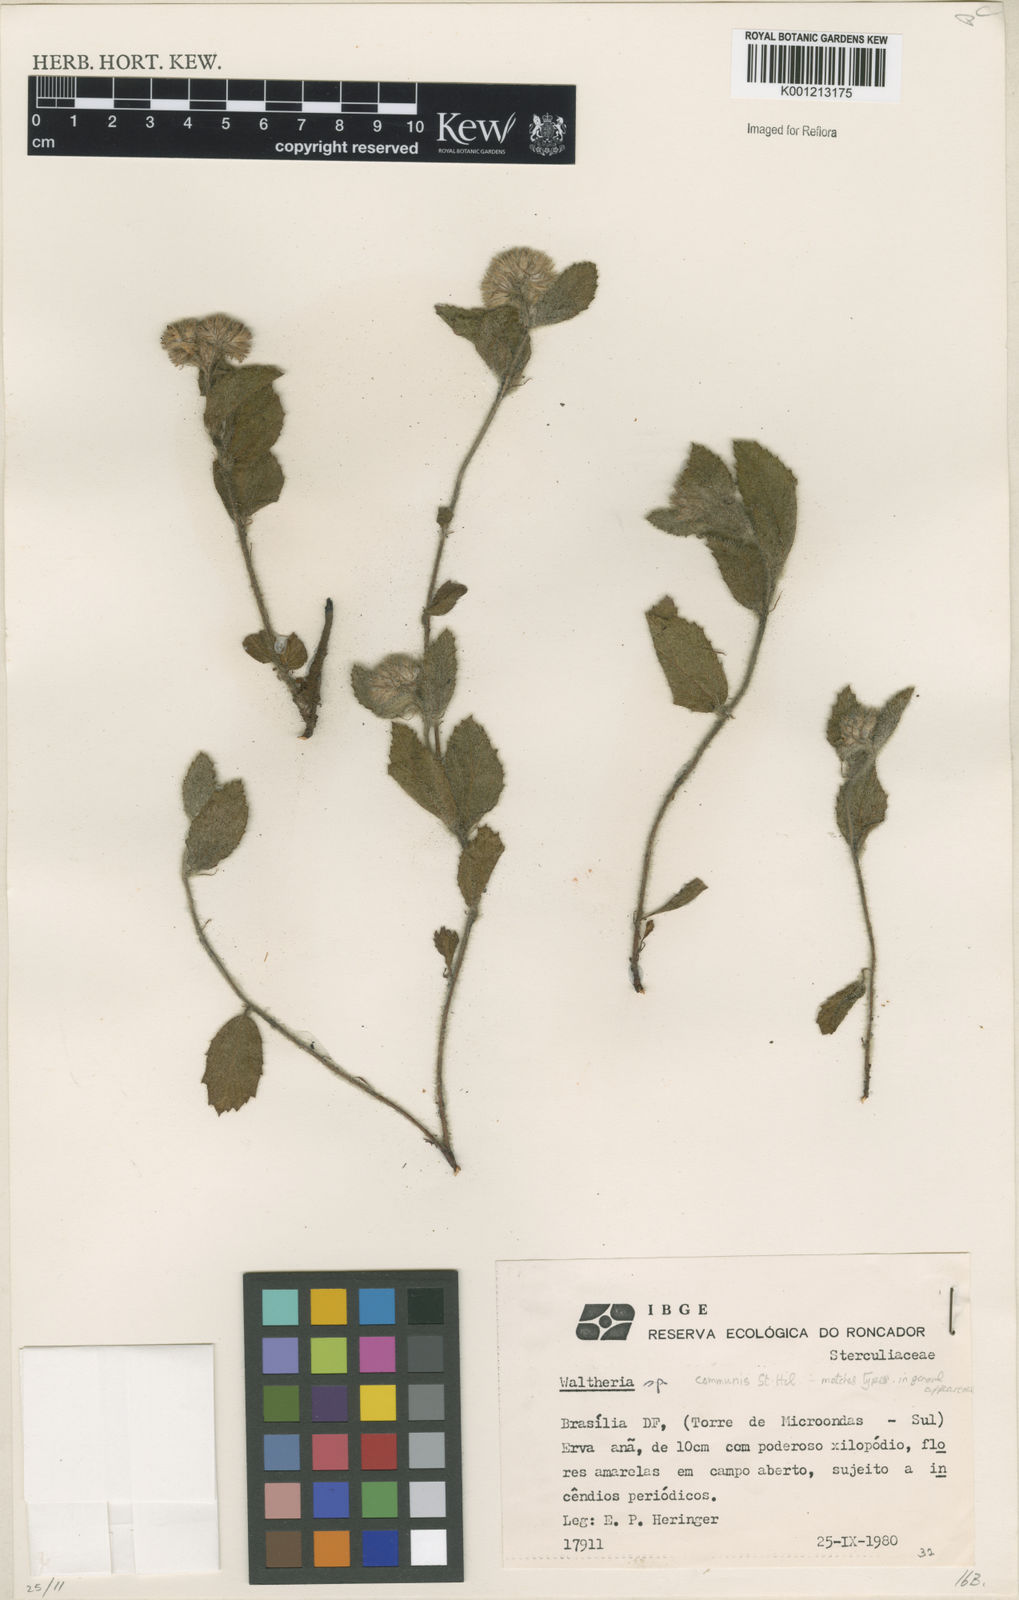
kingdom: Plantae
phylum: Tracheophyta
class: Magnoliopsida
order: Malvales
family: Malvaceae
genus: Waltheria
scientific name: Waltheria communis
